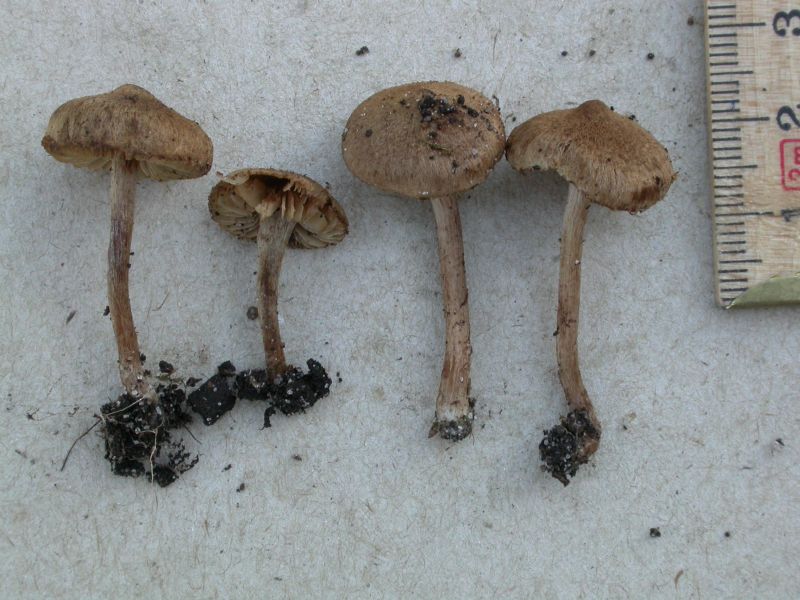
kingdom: Fungi
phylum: Basidiomycota
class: Agaricomycetes
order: Agaricales
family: Inocybaceae
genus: Inocybe
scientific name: Inocybe helobia
